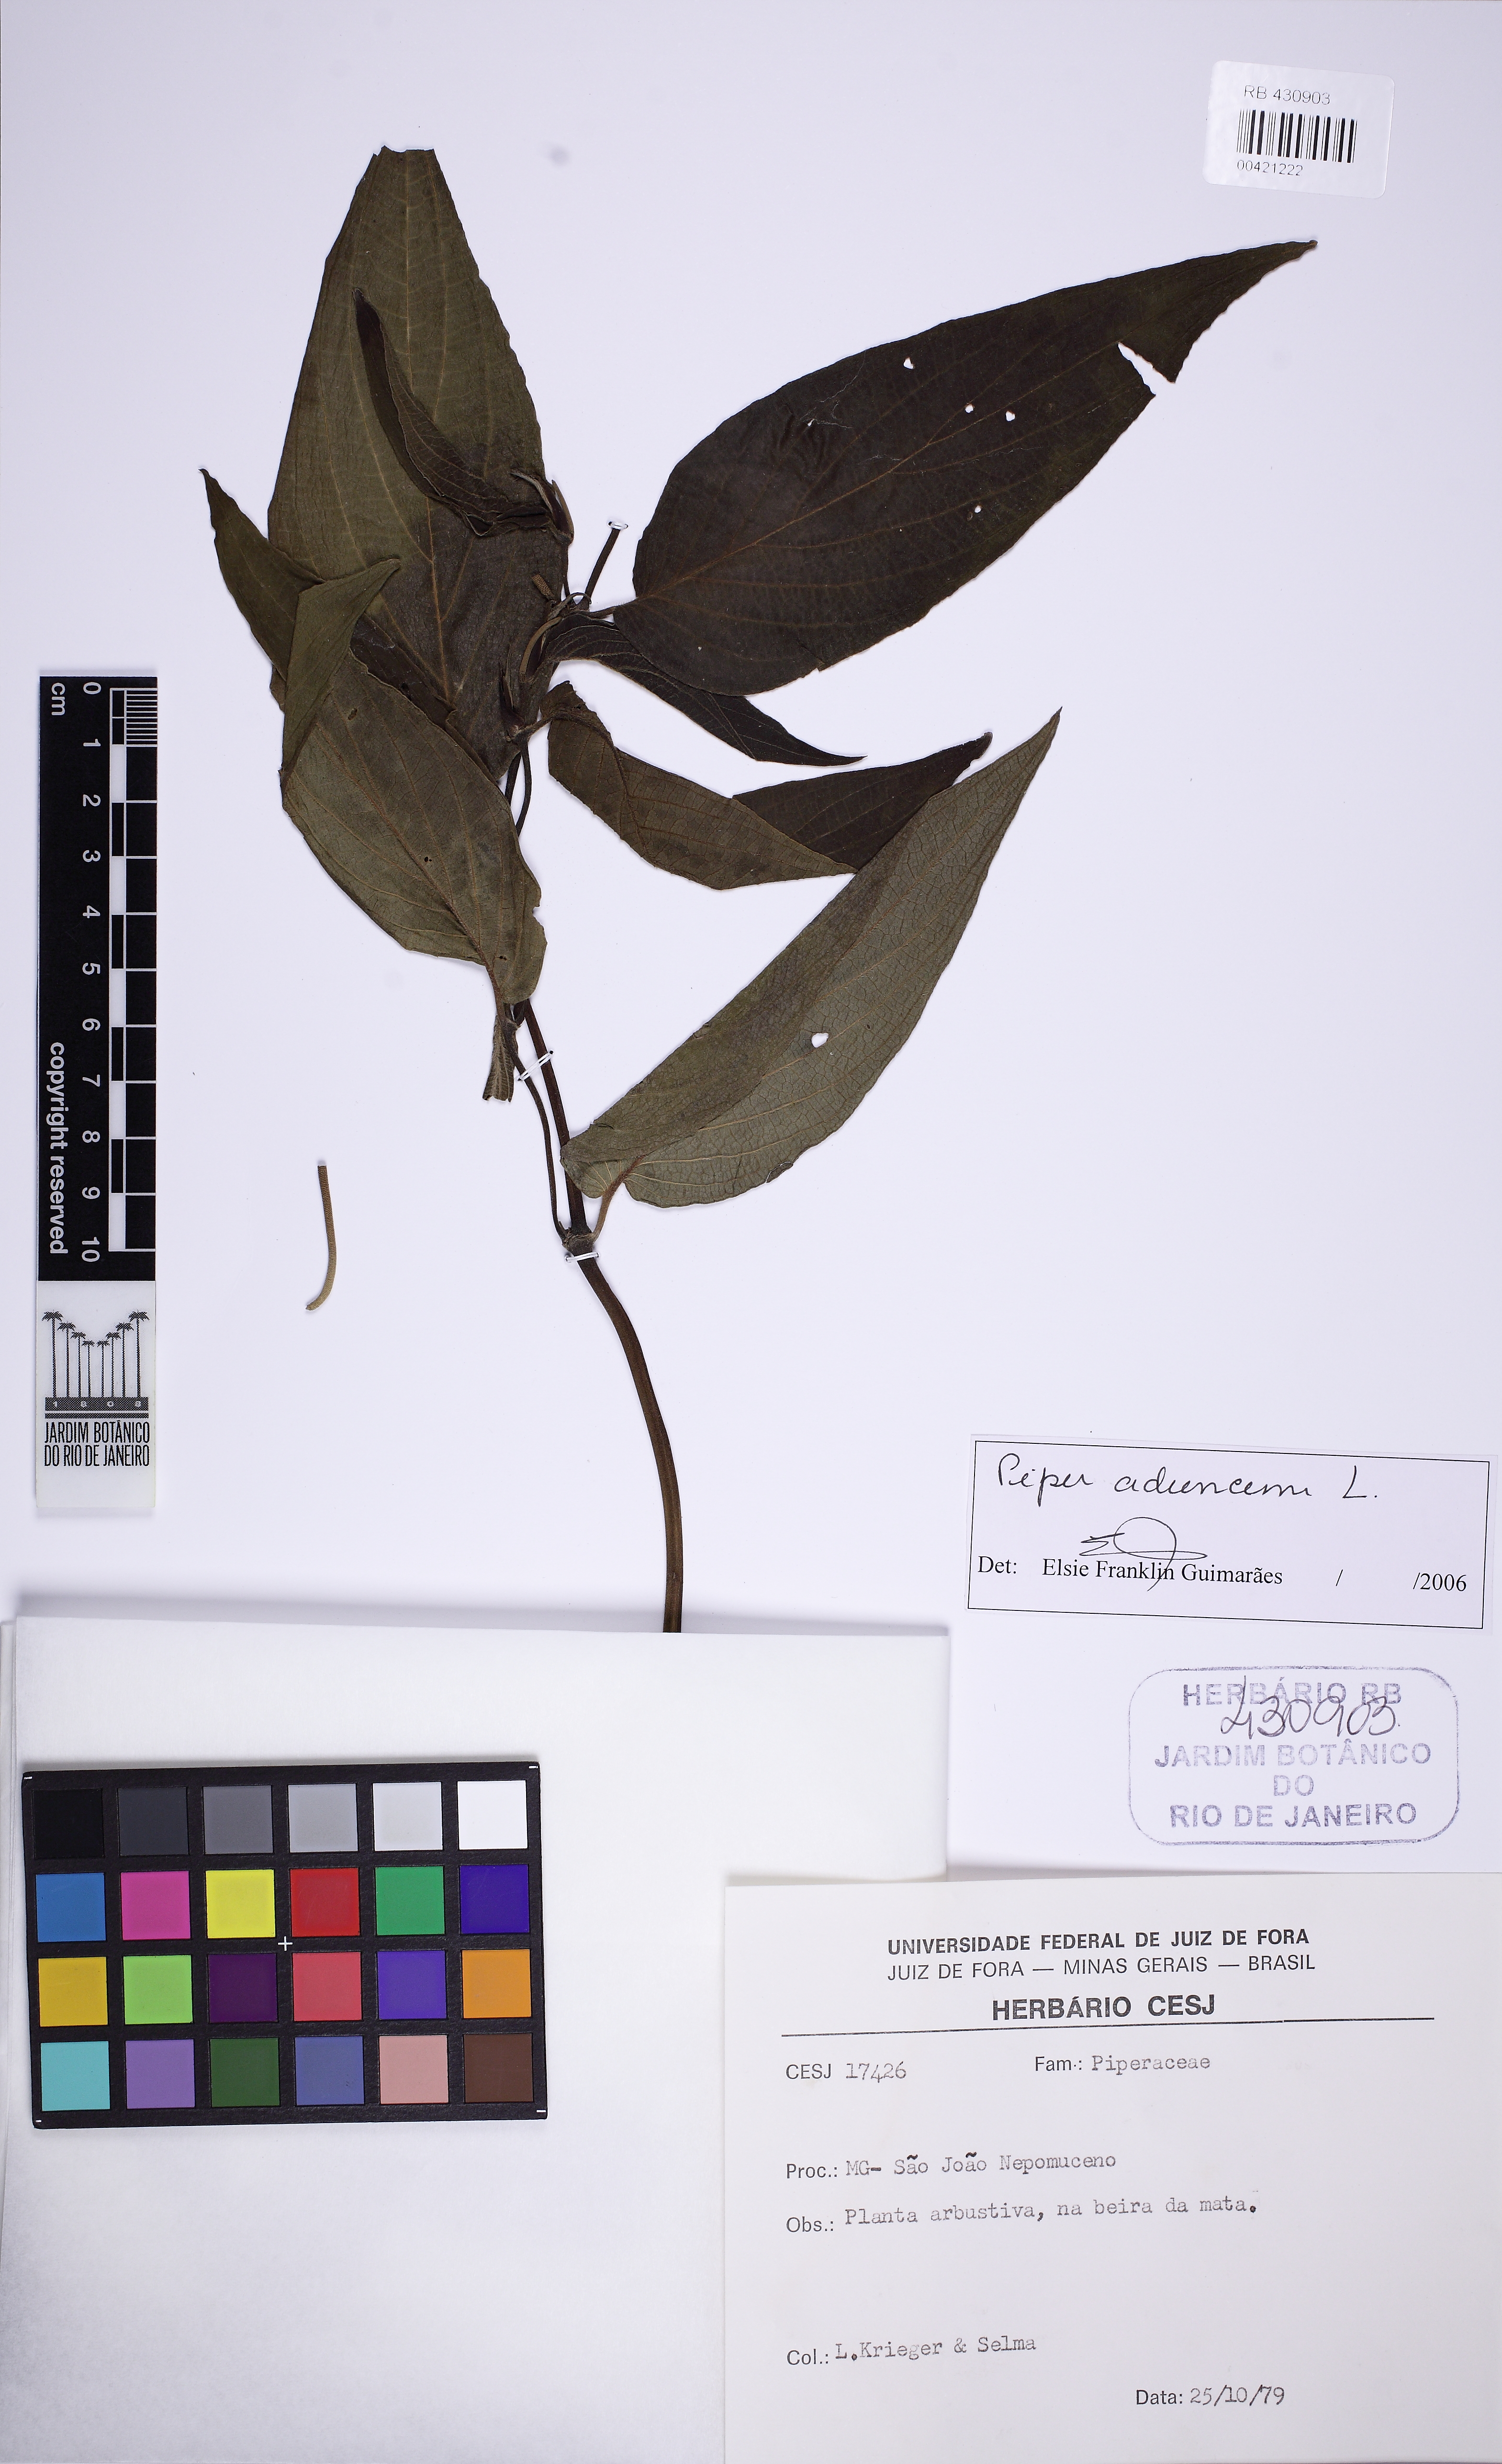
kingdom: Plantae
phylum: Tracheophyta
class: Magnoliopsida
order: Piperales
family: Piperaceae
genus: Piper
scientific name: Piper aduncum
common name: Spiked pepper
